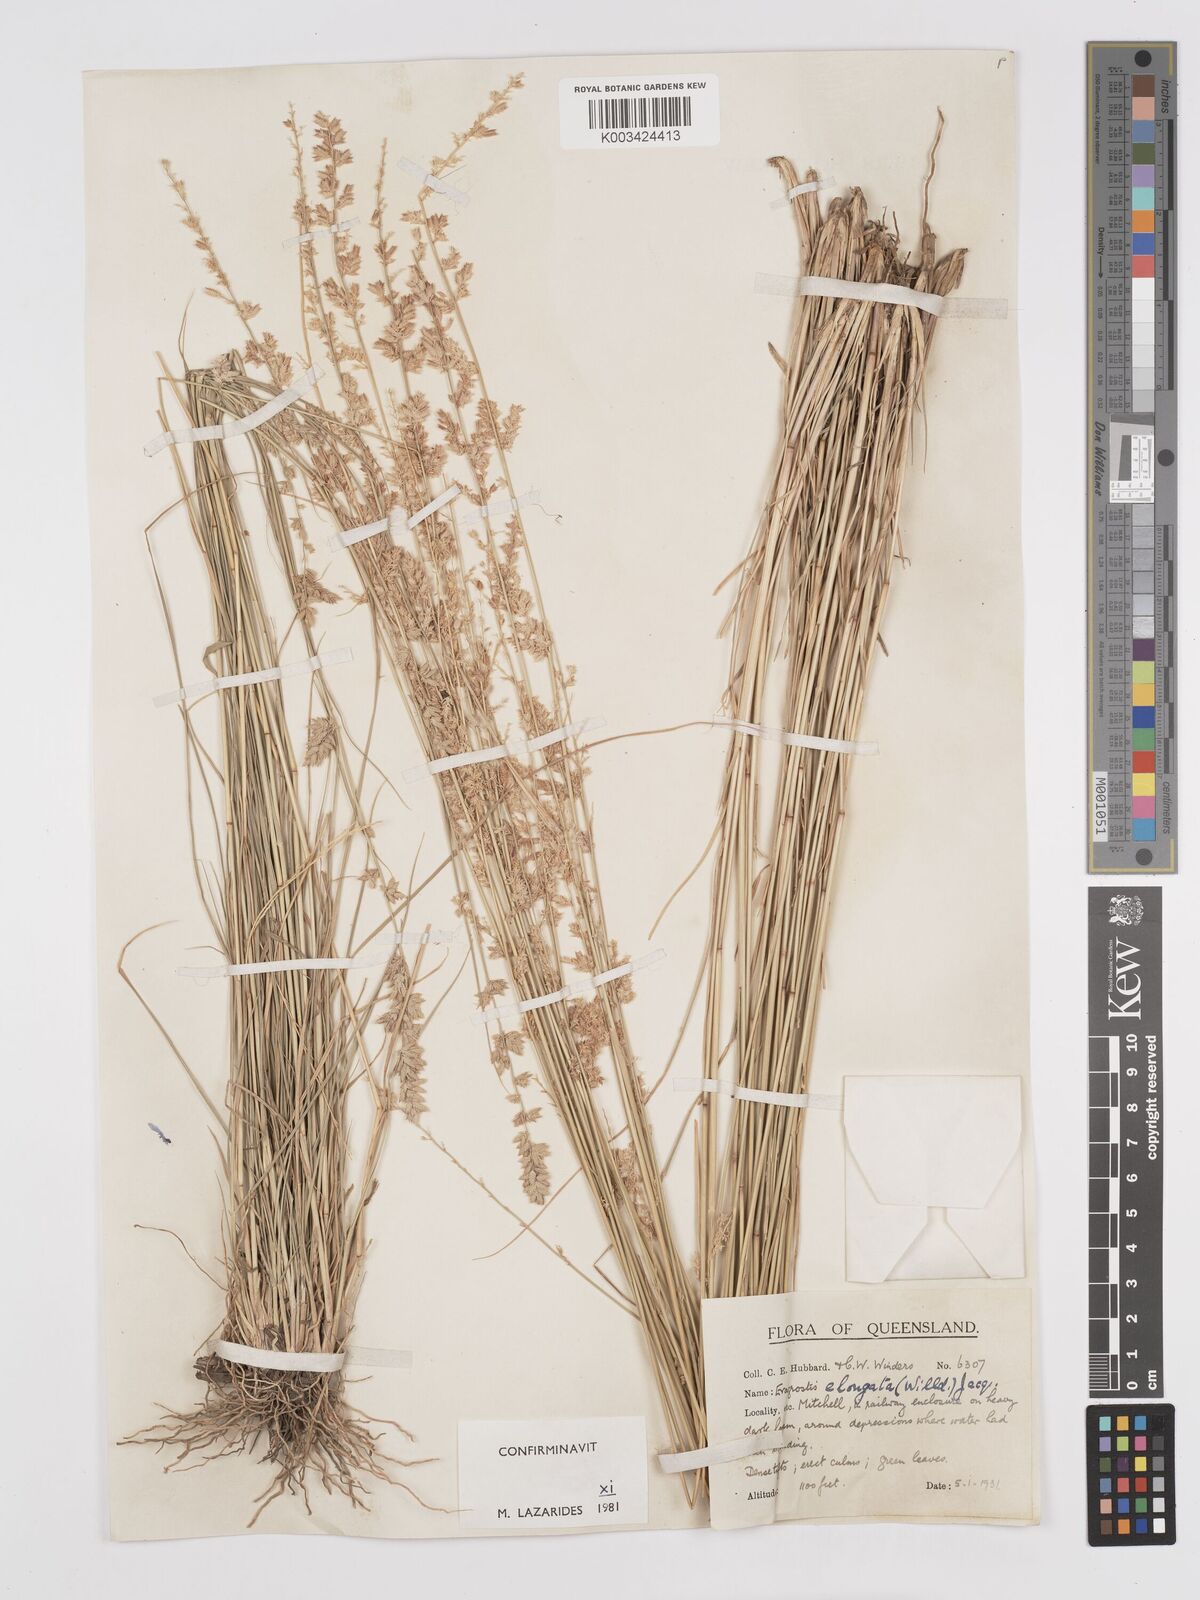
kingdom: Plantae
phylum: Tracheophyta
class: Liliopsida
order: Poales
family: Poaceae
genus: Eragrostis
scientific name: Eragrostis elongata
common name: Long lovegrass
